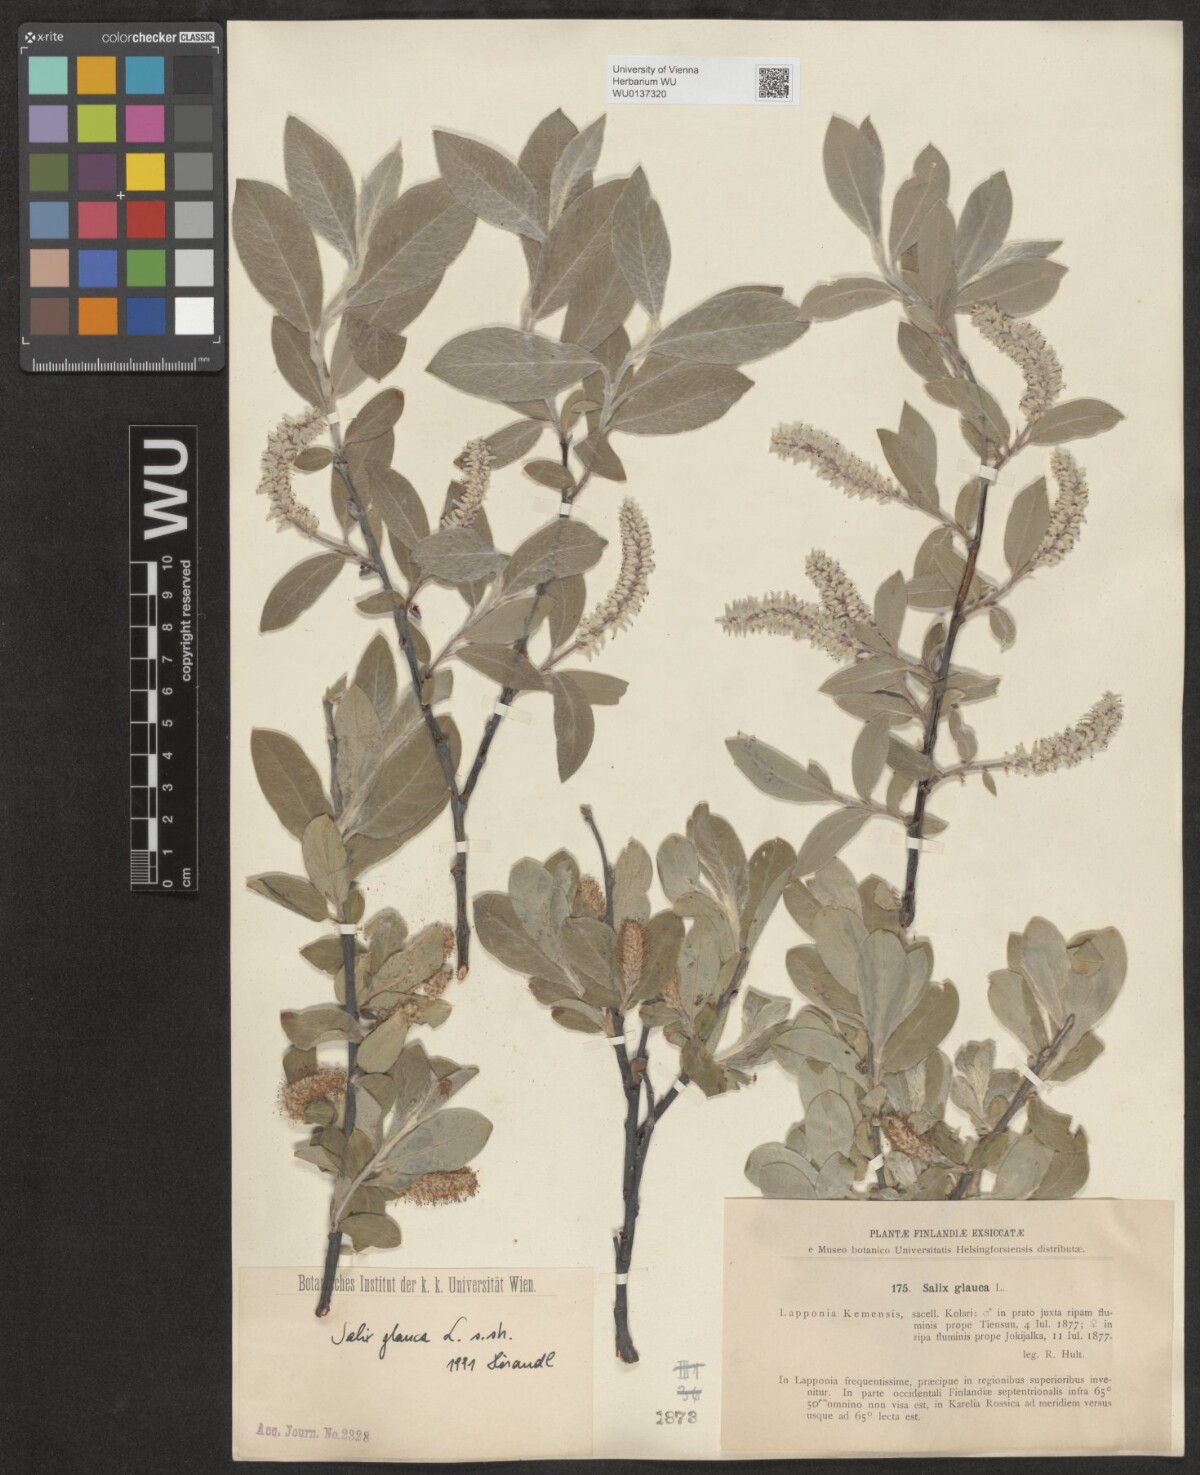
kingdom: Plantae
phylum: Tracheophyta
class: Magnoliopsida
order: Malpighiales
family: Salicaceae
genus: Salix
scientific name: Salix glauca
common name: Glaucous willow
